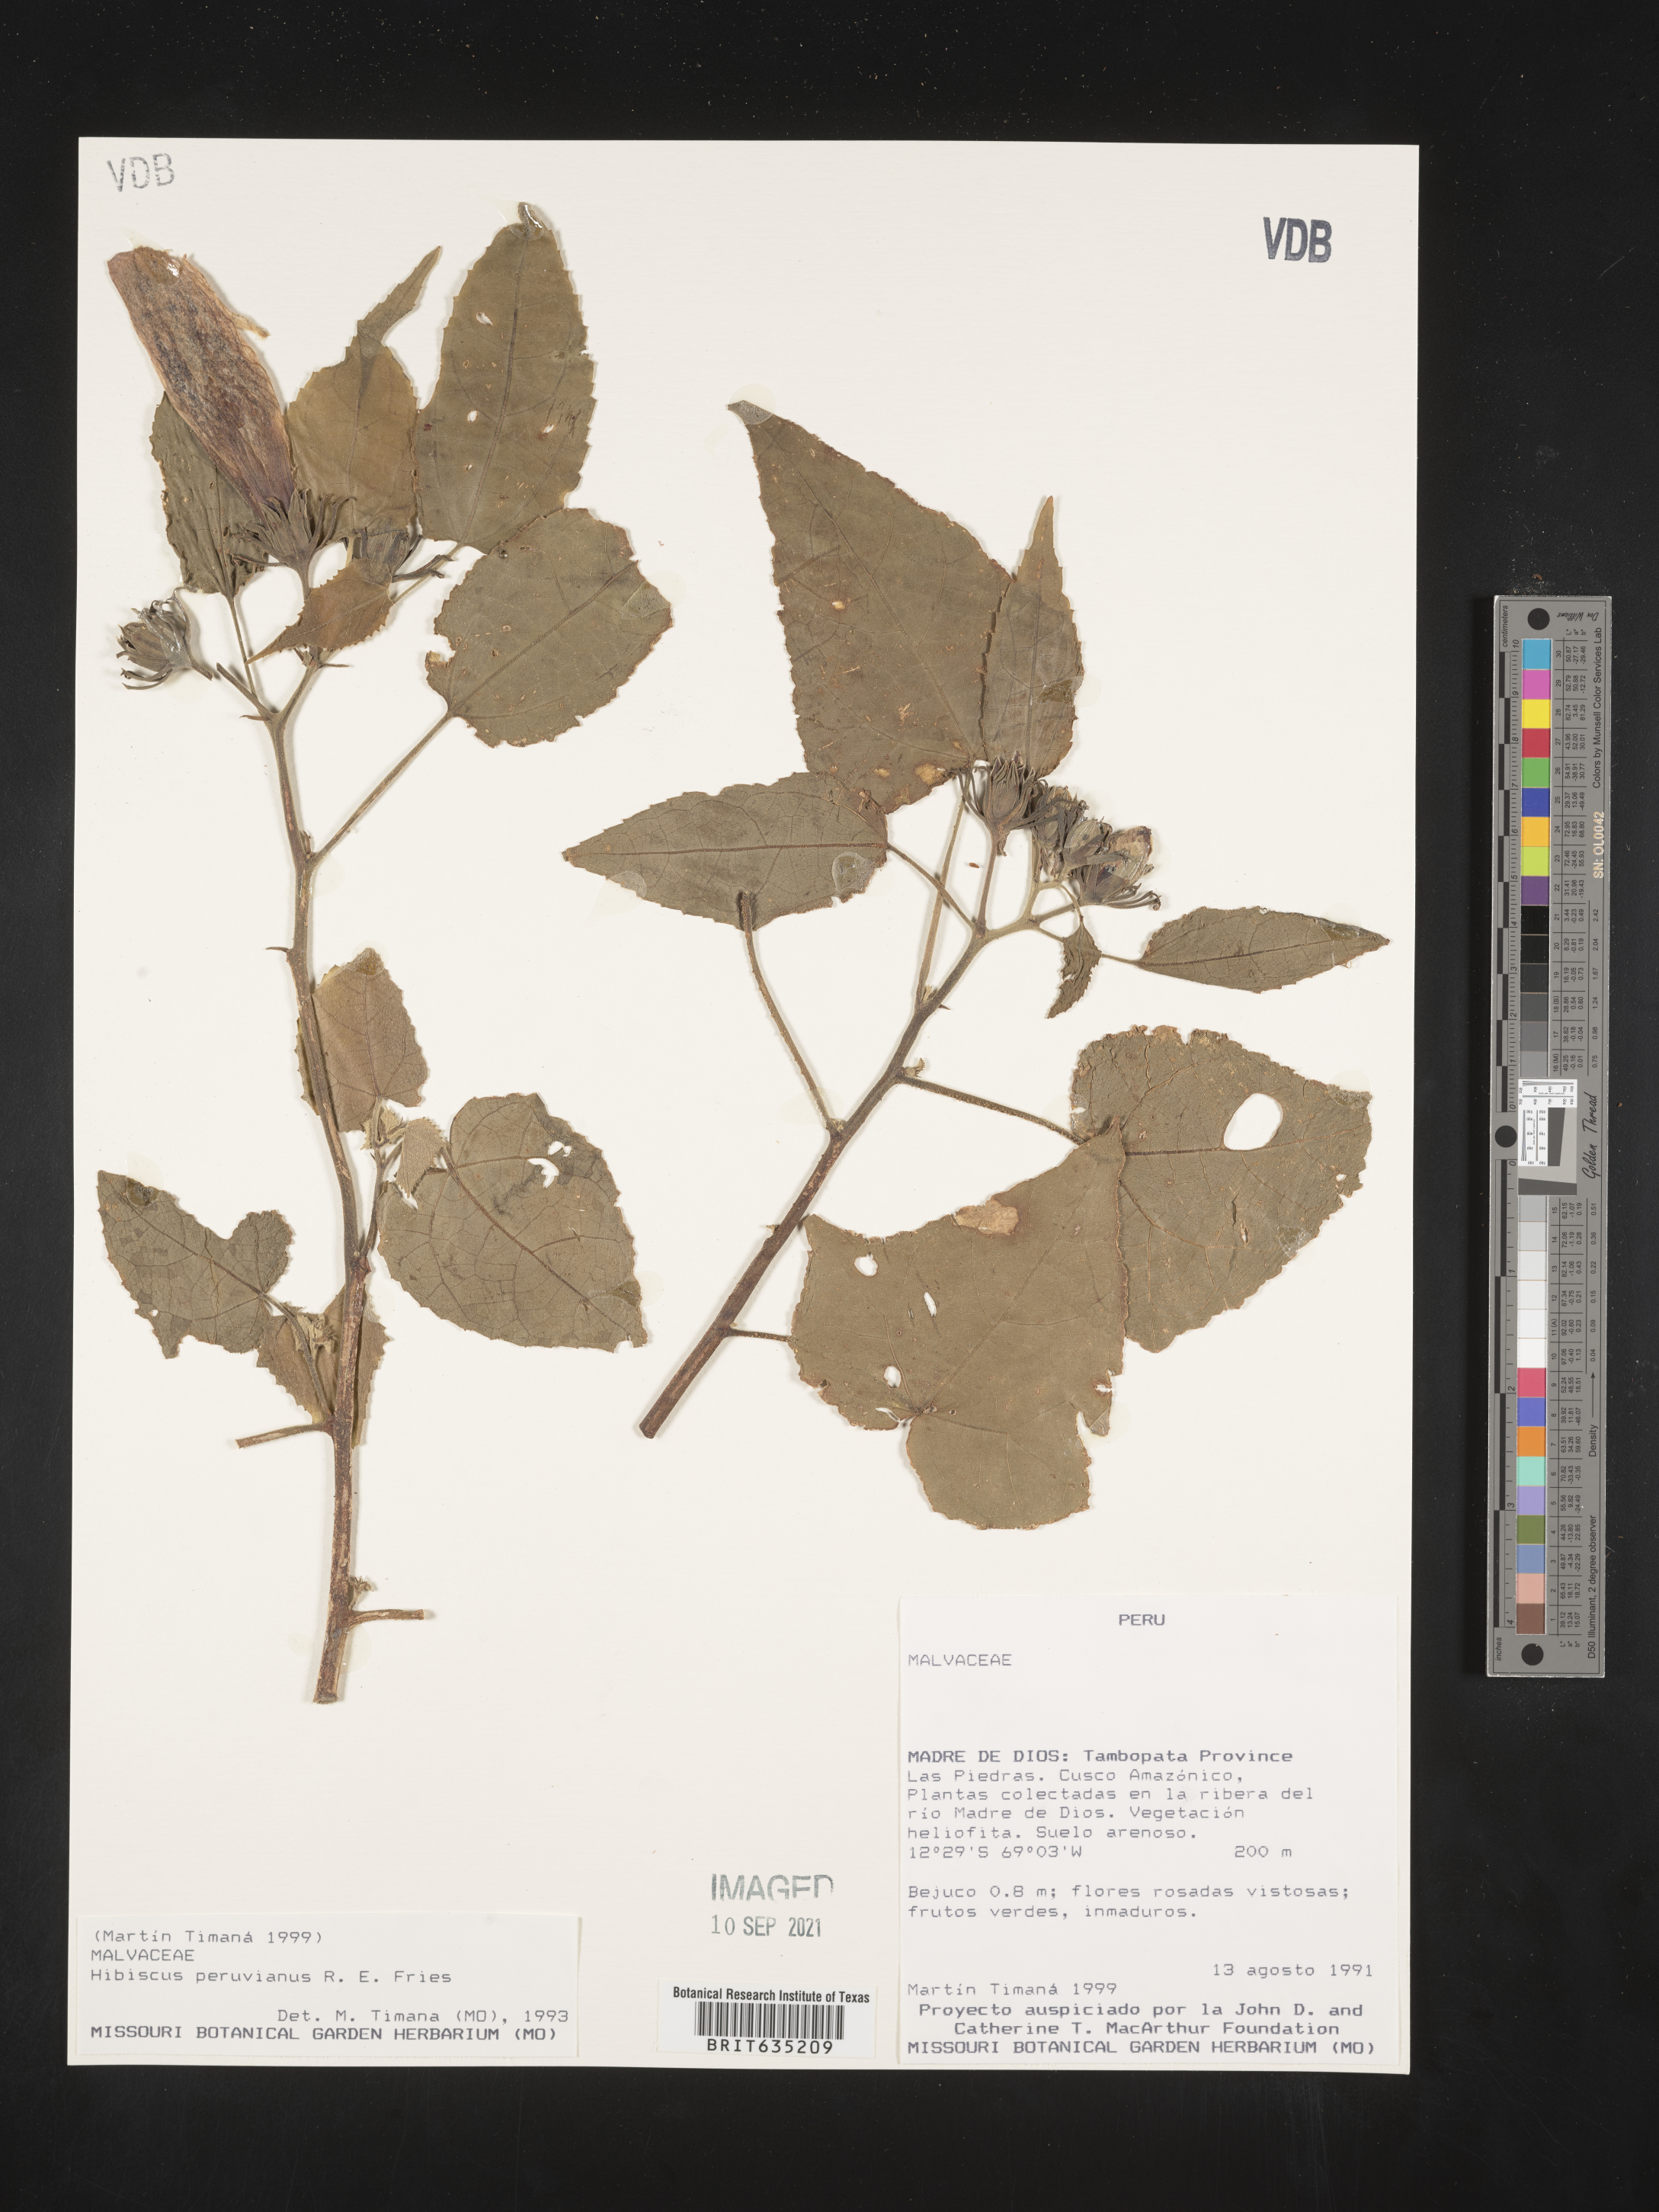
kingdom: Plantae
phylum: Tracheophyta
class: Magnoliopsida
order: Malvales
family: Malvaceae
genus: Hibiscus
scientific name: Hibiscus
